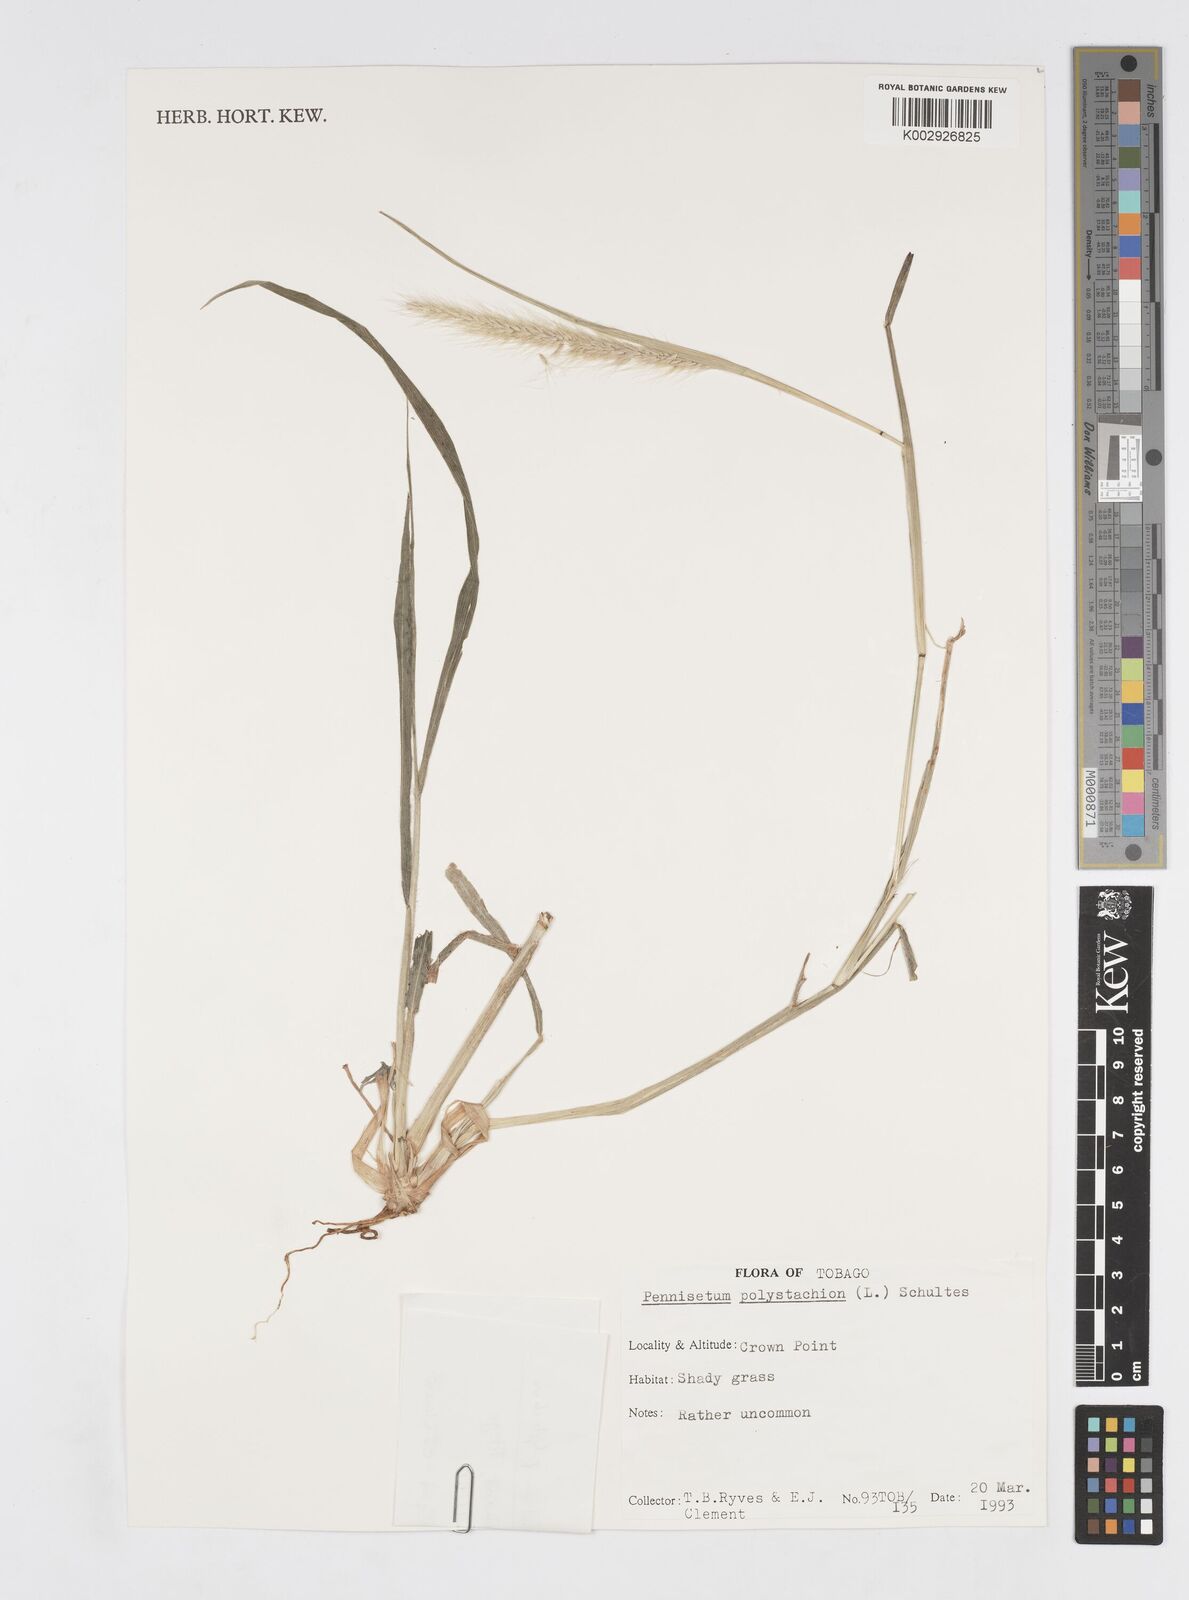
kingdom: Plantae
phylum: Tracheophyta
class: Liliopsida
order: Poales
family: Poaceae
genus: Cenchrus
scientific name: Cenchrus setosus
